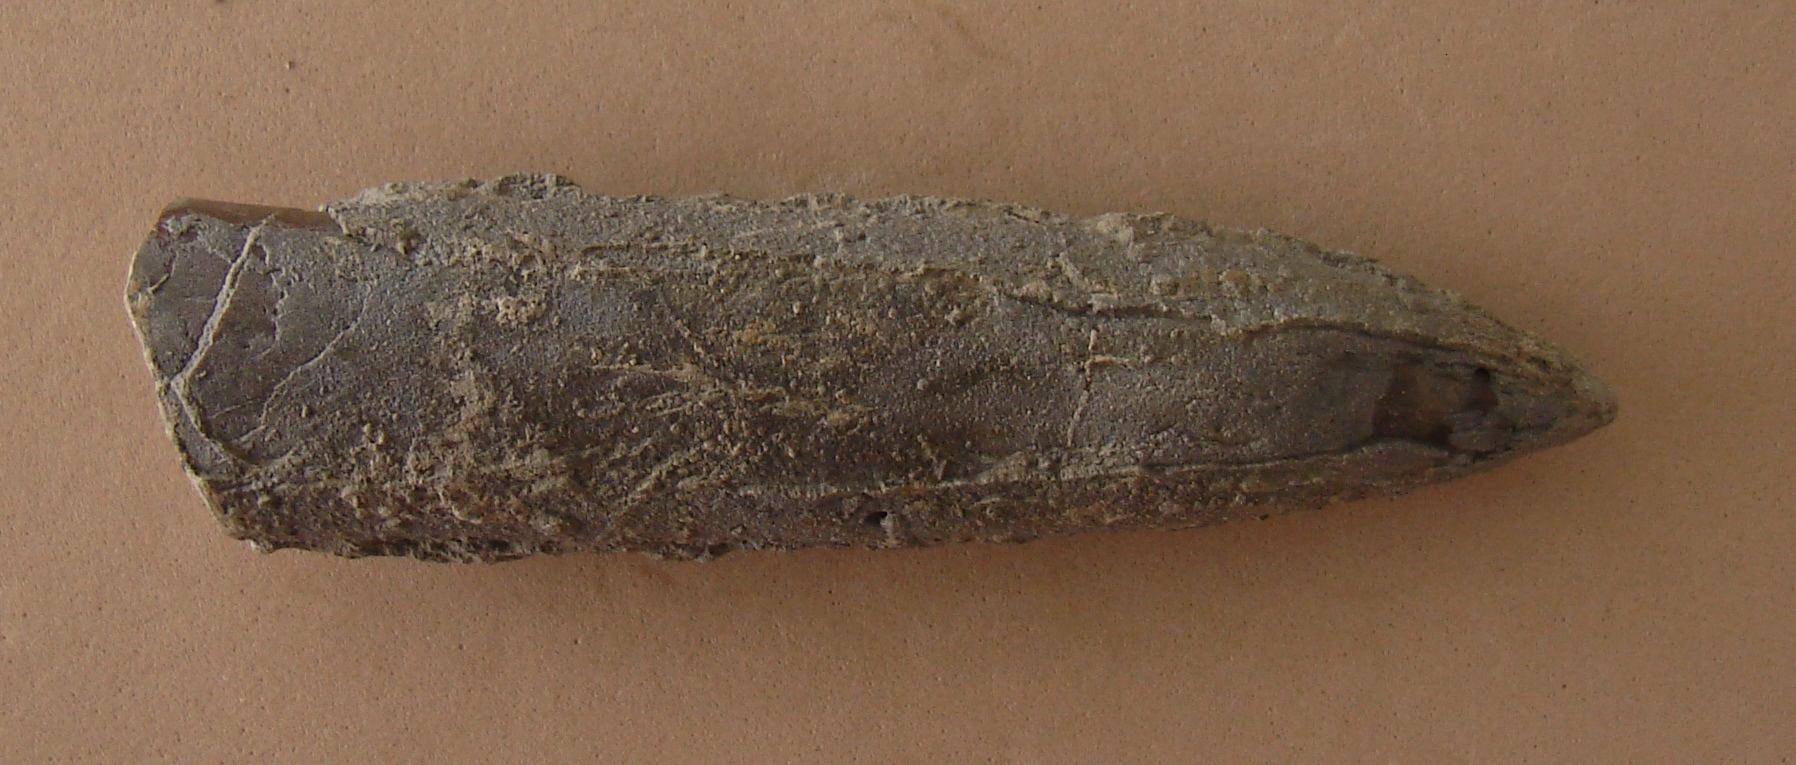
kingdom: Animalia
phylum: Mollusca
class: Cephalopoda
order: Belemnitida
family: Megateuthididae
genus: Acrocoelites
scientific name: Acrocoelites levidensis
